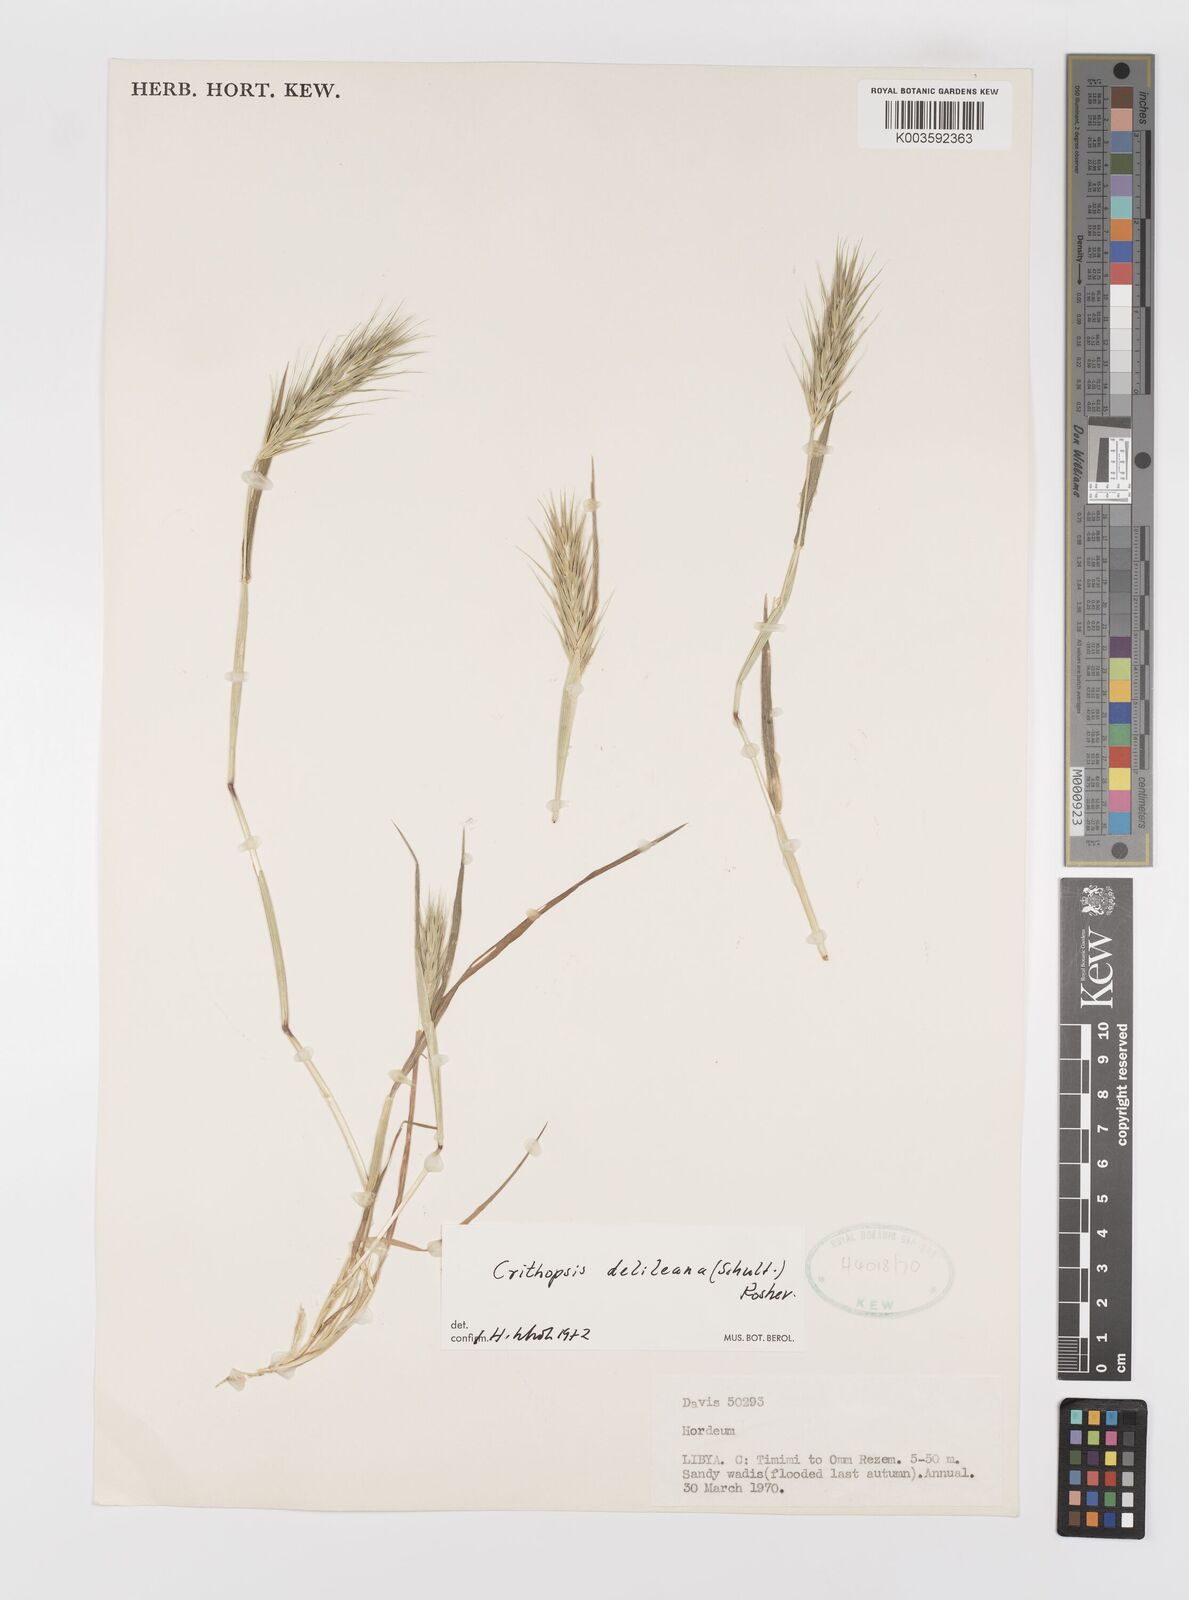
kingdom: Plantae
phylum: Tracheophyta
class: Liliopsida
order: Poales
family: Poaceae
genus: Crithopsis
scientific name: Crithopsis delileana
